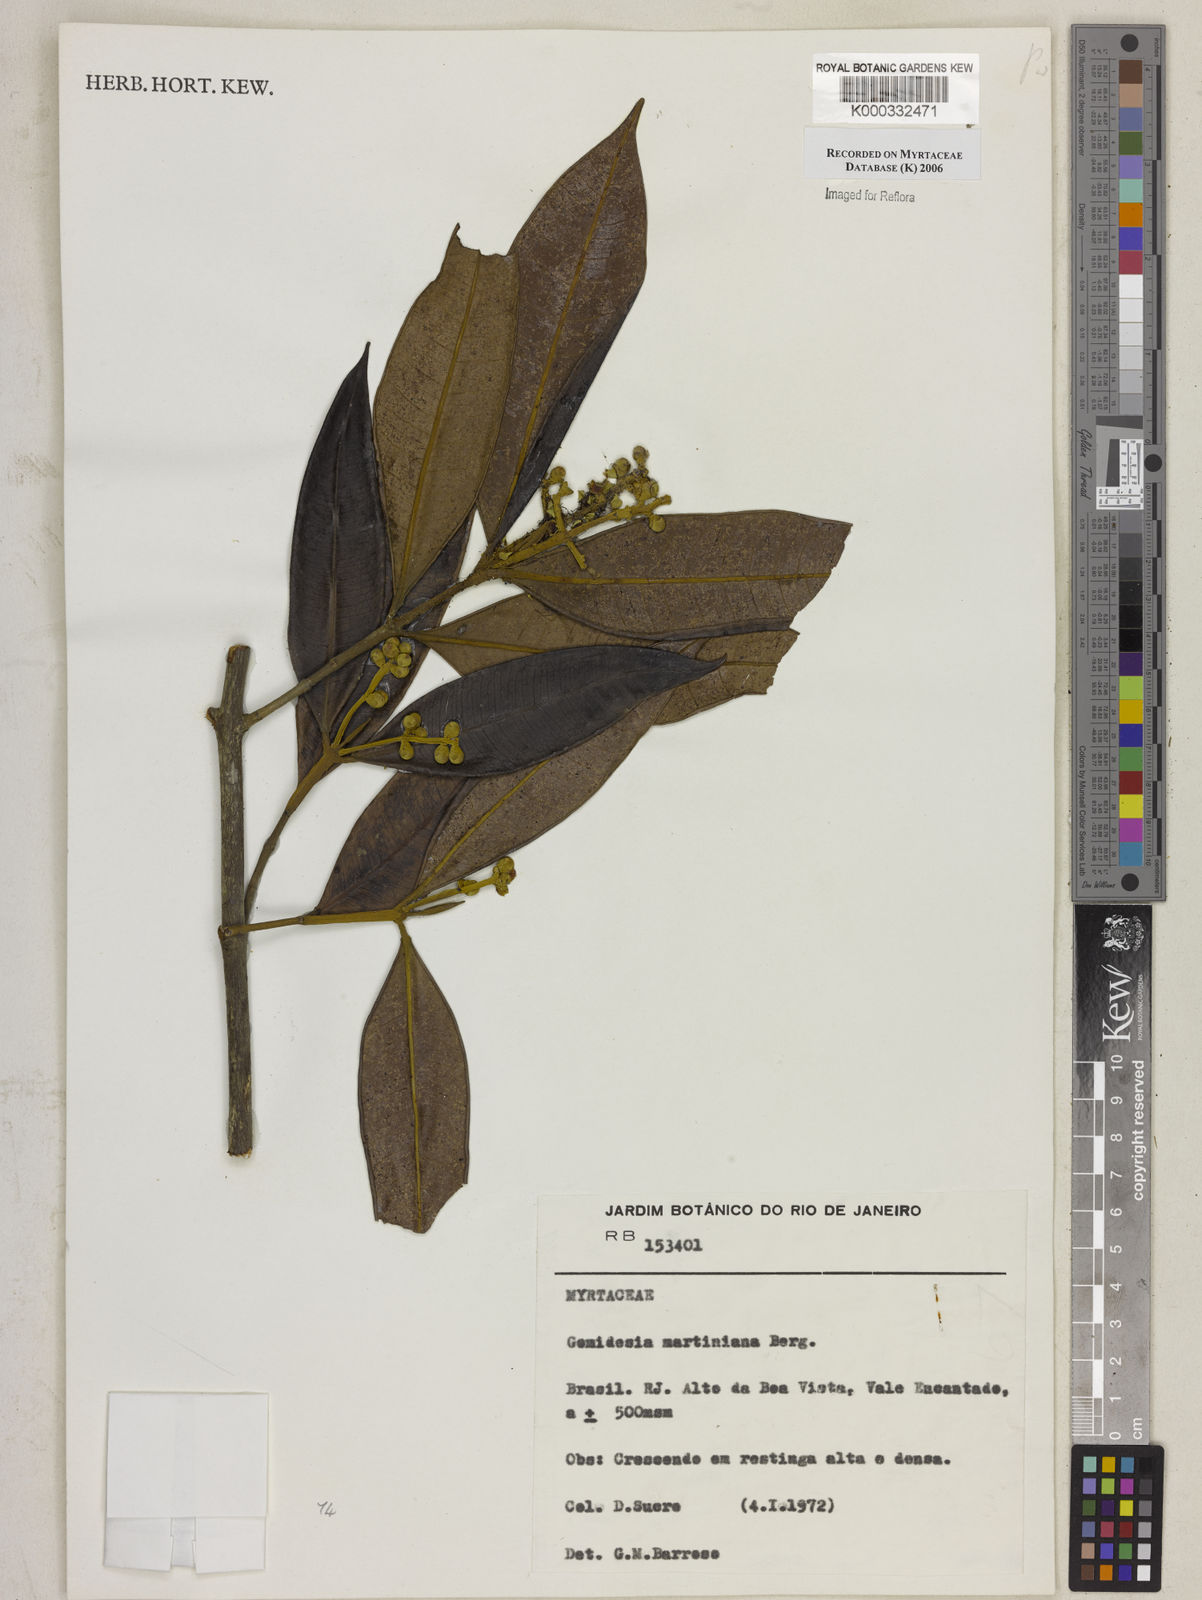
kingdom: Plantae
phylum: Tracheophyta
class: Magnoliopsida
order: Myrtales
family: Myrtaceae
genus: Myrcia
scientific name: Myrcia vittoriana
